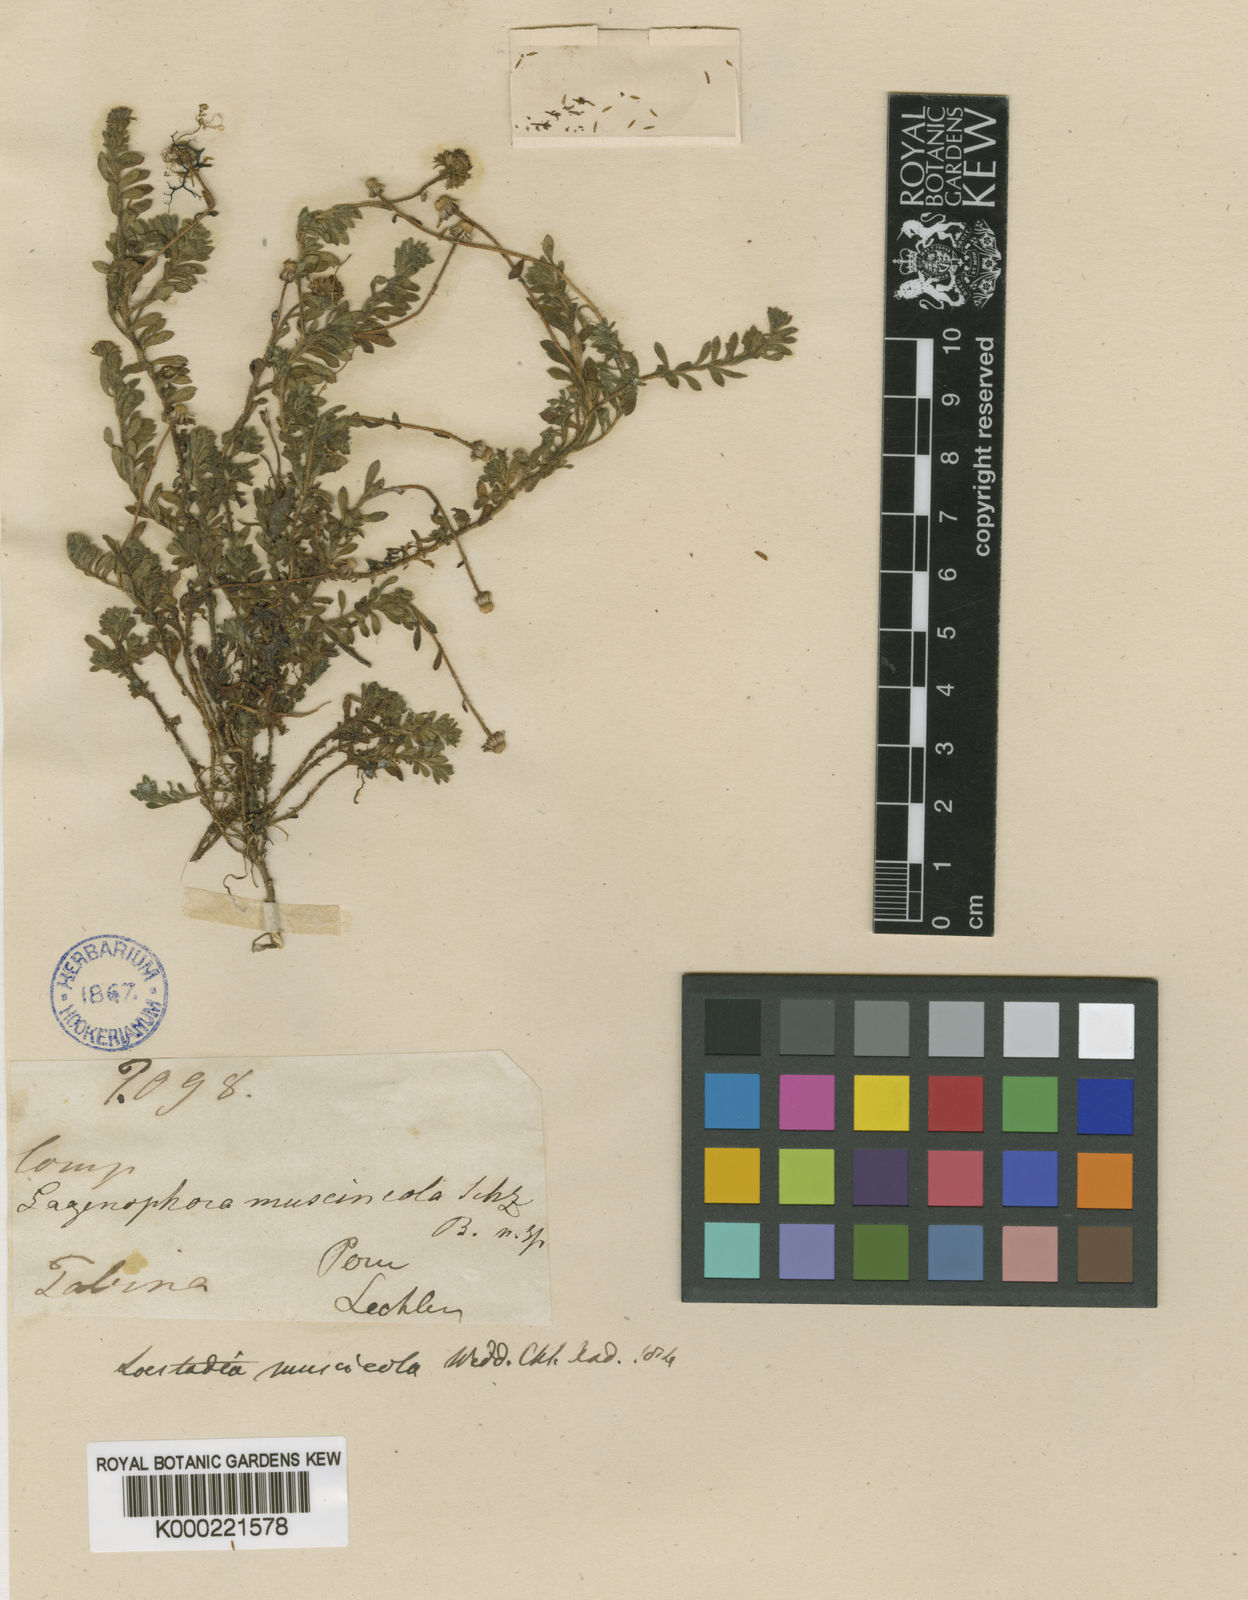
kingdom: Plantae
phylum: Tracheophyta
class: Magnoliopsida
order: Asterales
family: Asteraceae
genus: Laestadia
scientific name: Laestadia muscicola
